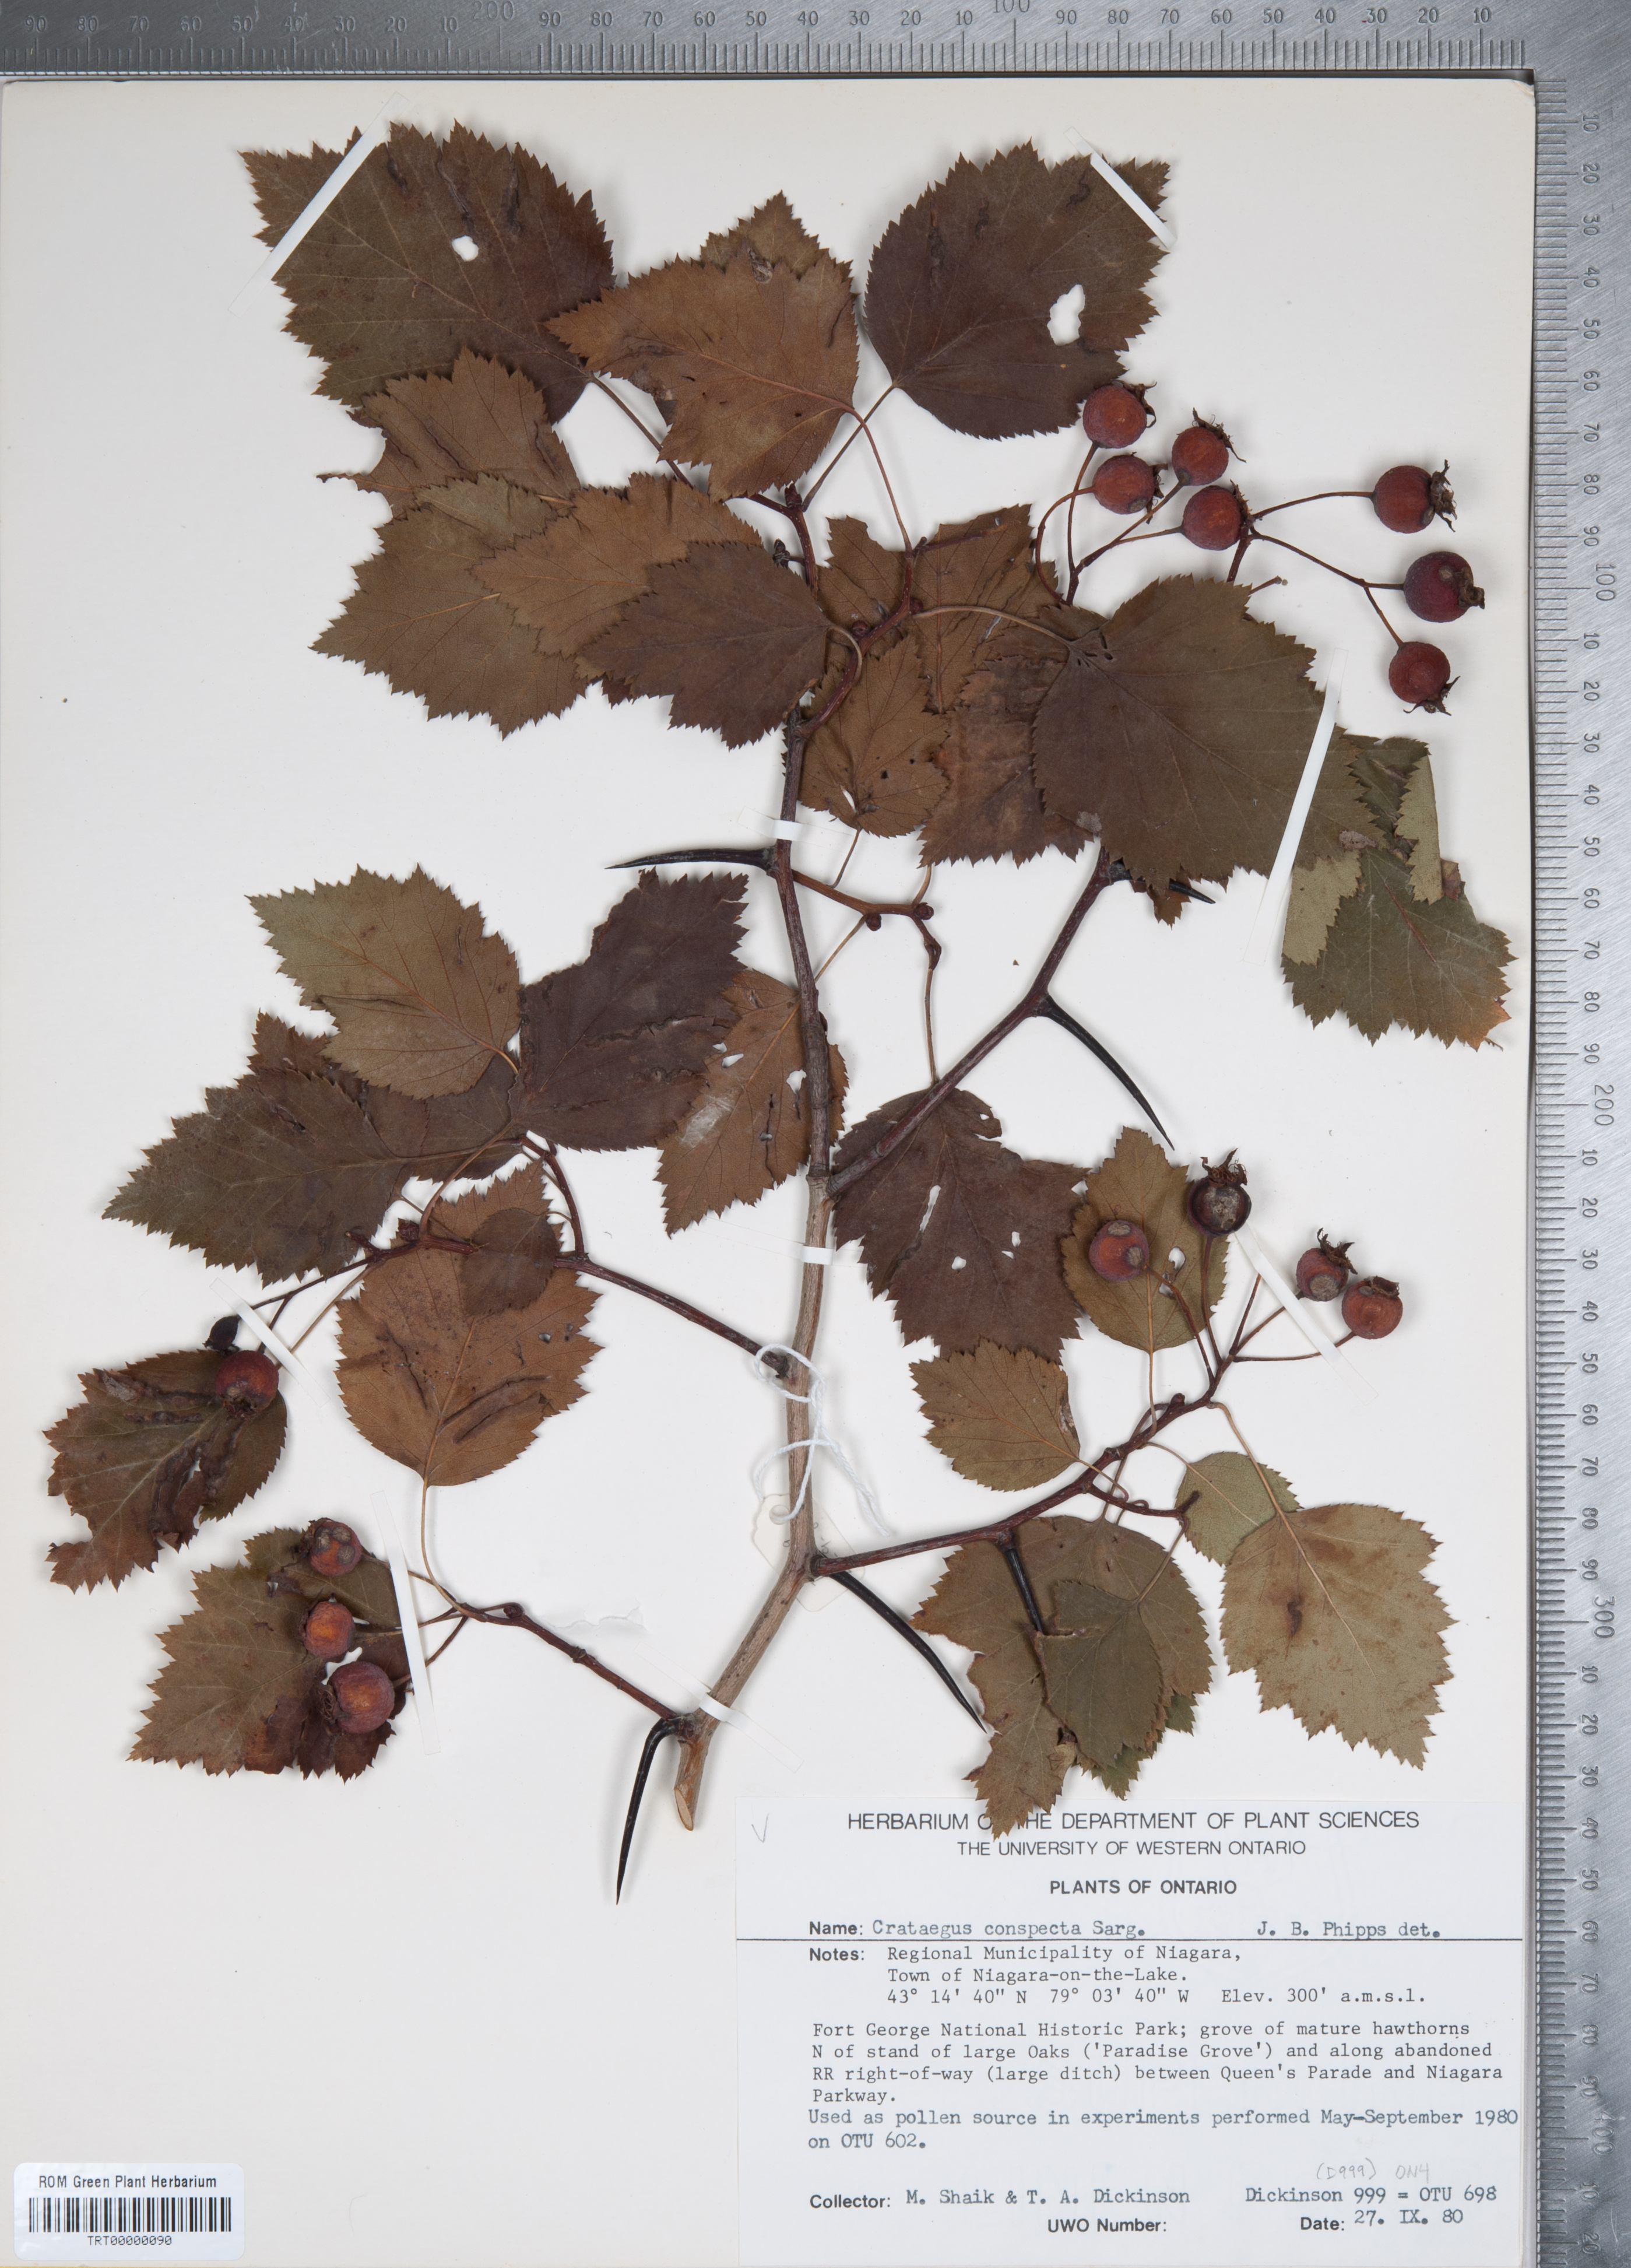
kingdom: Plantae
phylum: Tracheophyta
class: Magnoliopsida
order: Rosales
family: Rosaceae
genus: Crataegus
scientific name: Crataegus coccinioides
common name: Large-flowered cockspurthorn
